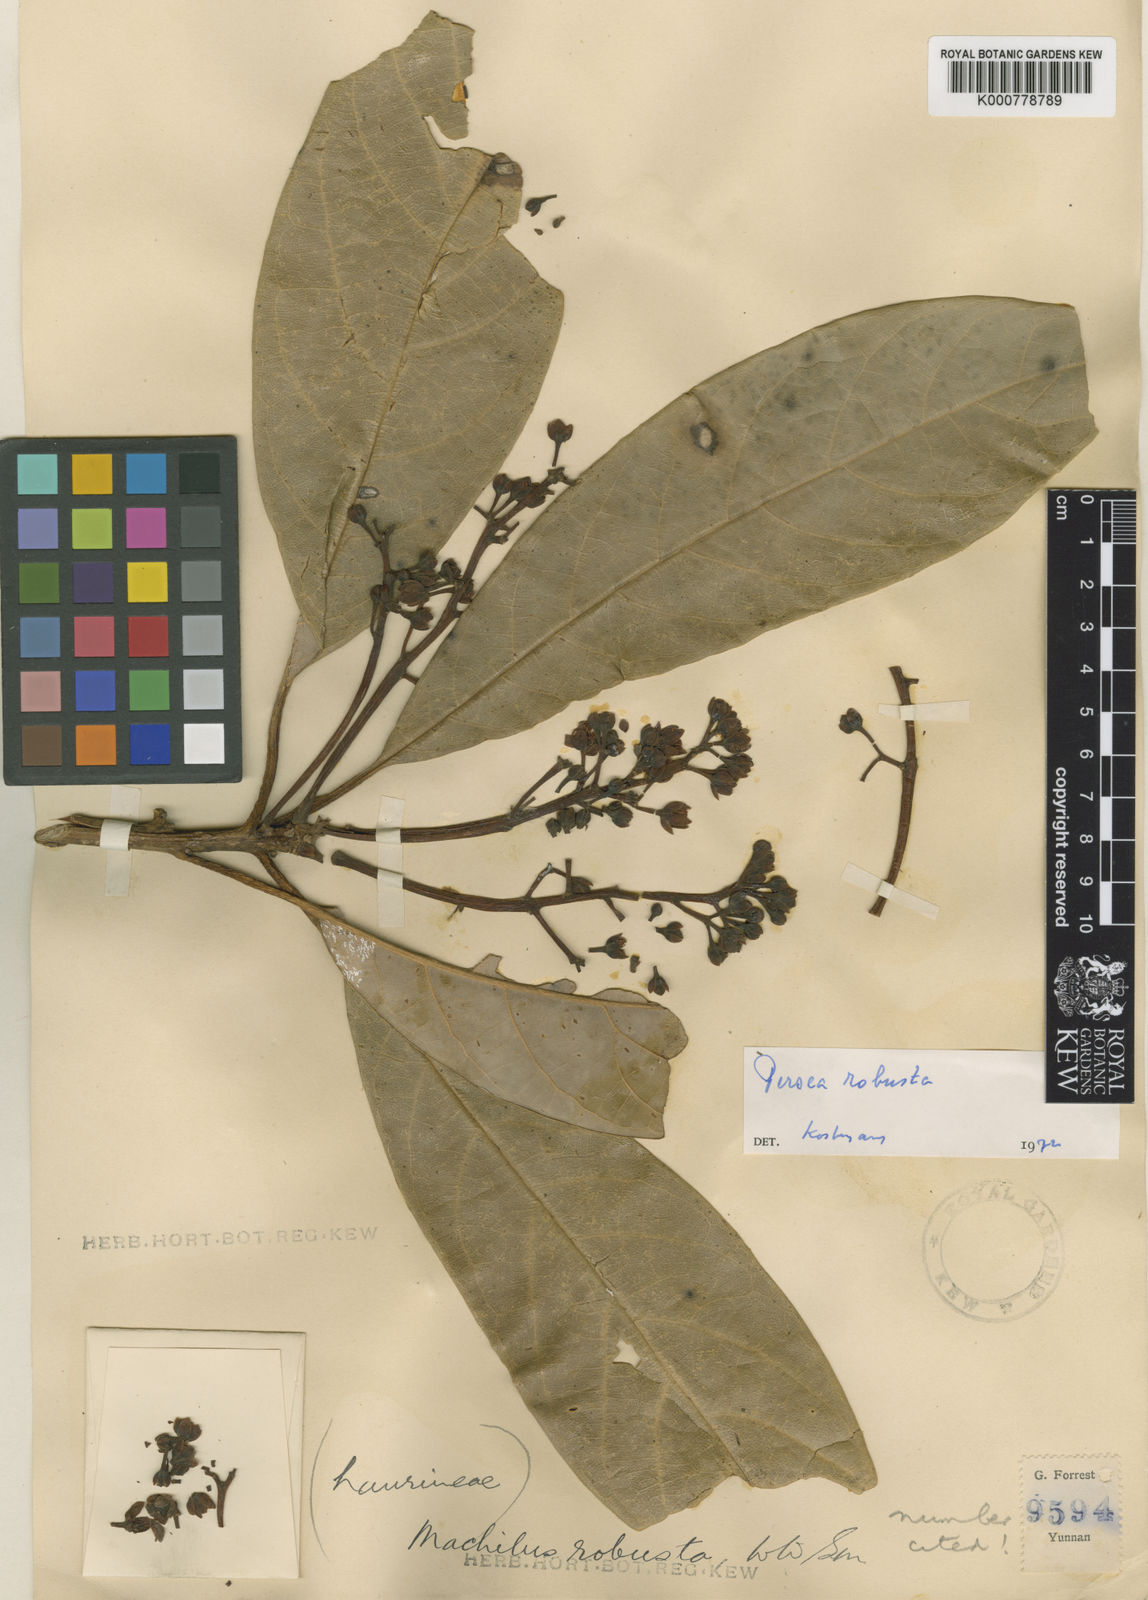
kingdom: Plantae
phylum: Tracheophyta
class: Magnoliopsida
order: Laurales
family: Lauraceae
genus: Machilus
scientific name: Machilus robustus
